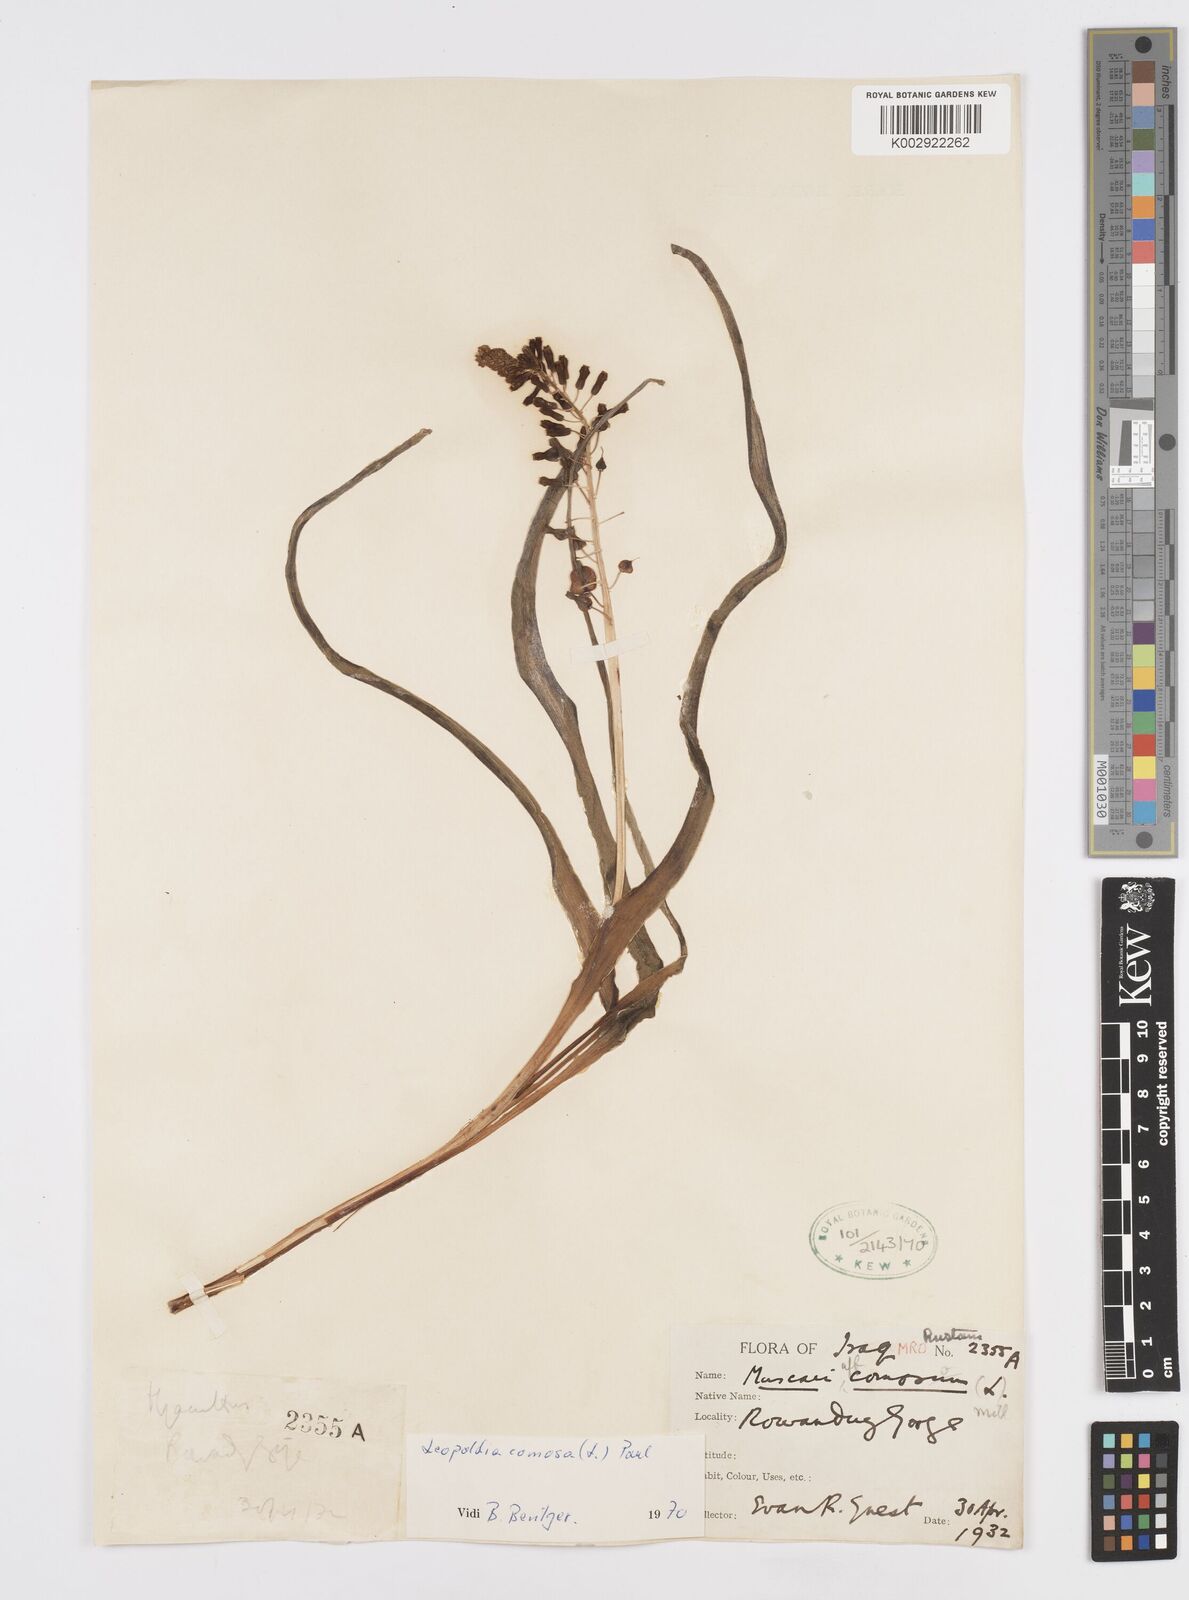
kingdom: Plantae
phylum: Tracheophyta
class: Liliopsida
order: Asparagales
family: Asparagaceae
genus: Muscari
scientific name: Muscari comosum
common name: Tassel hyacinth
